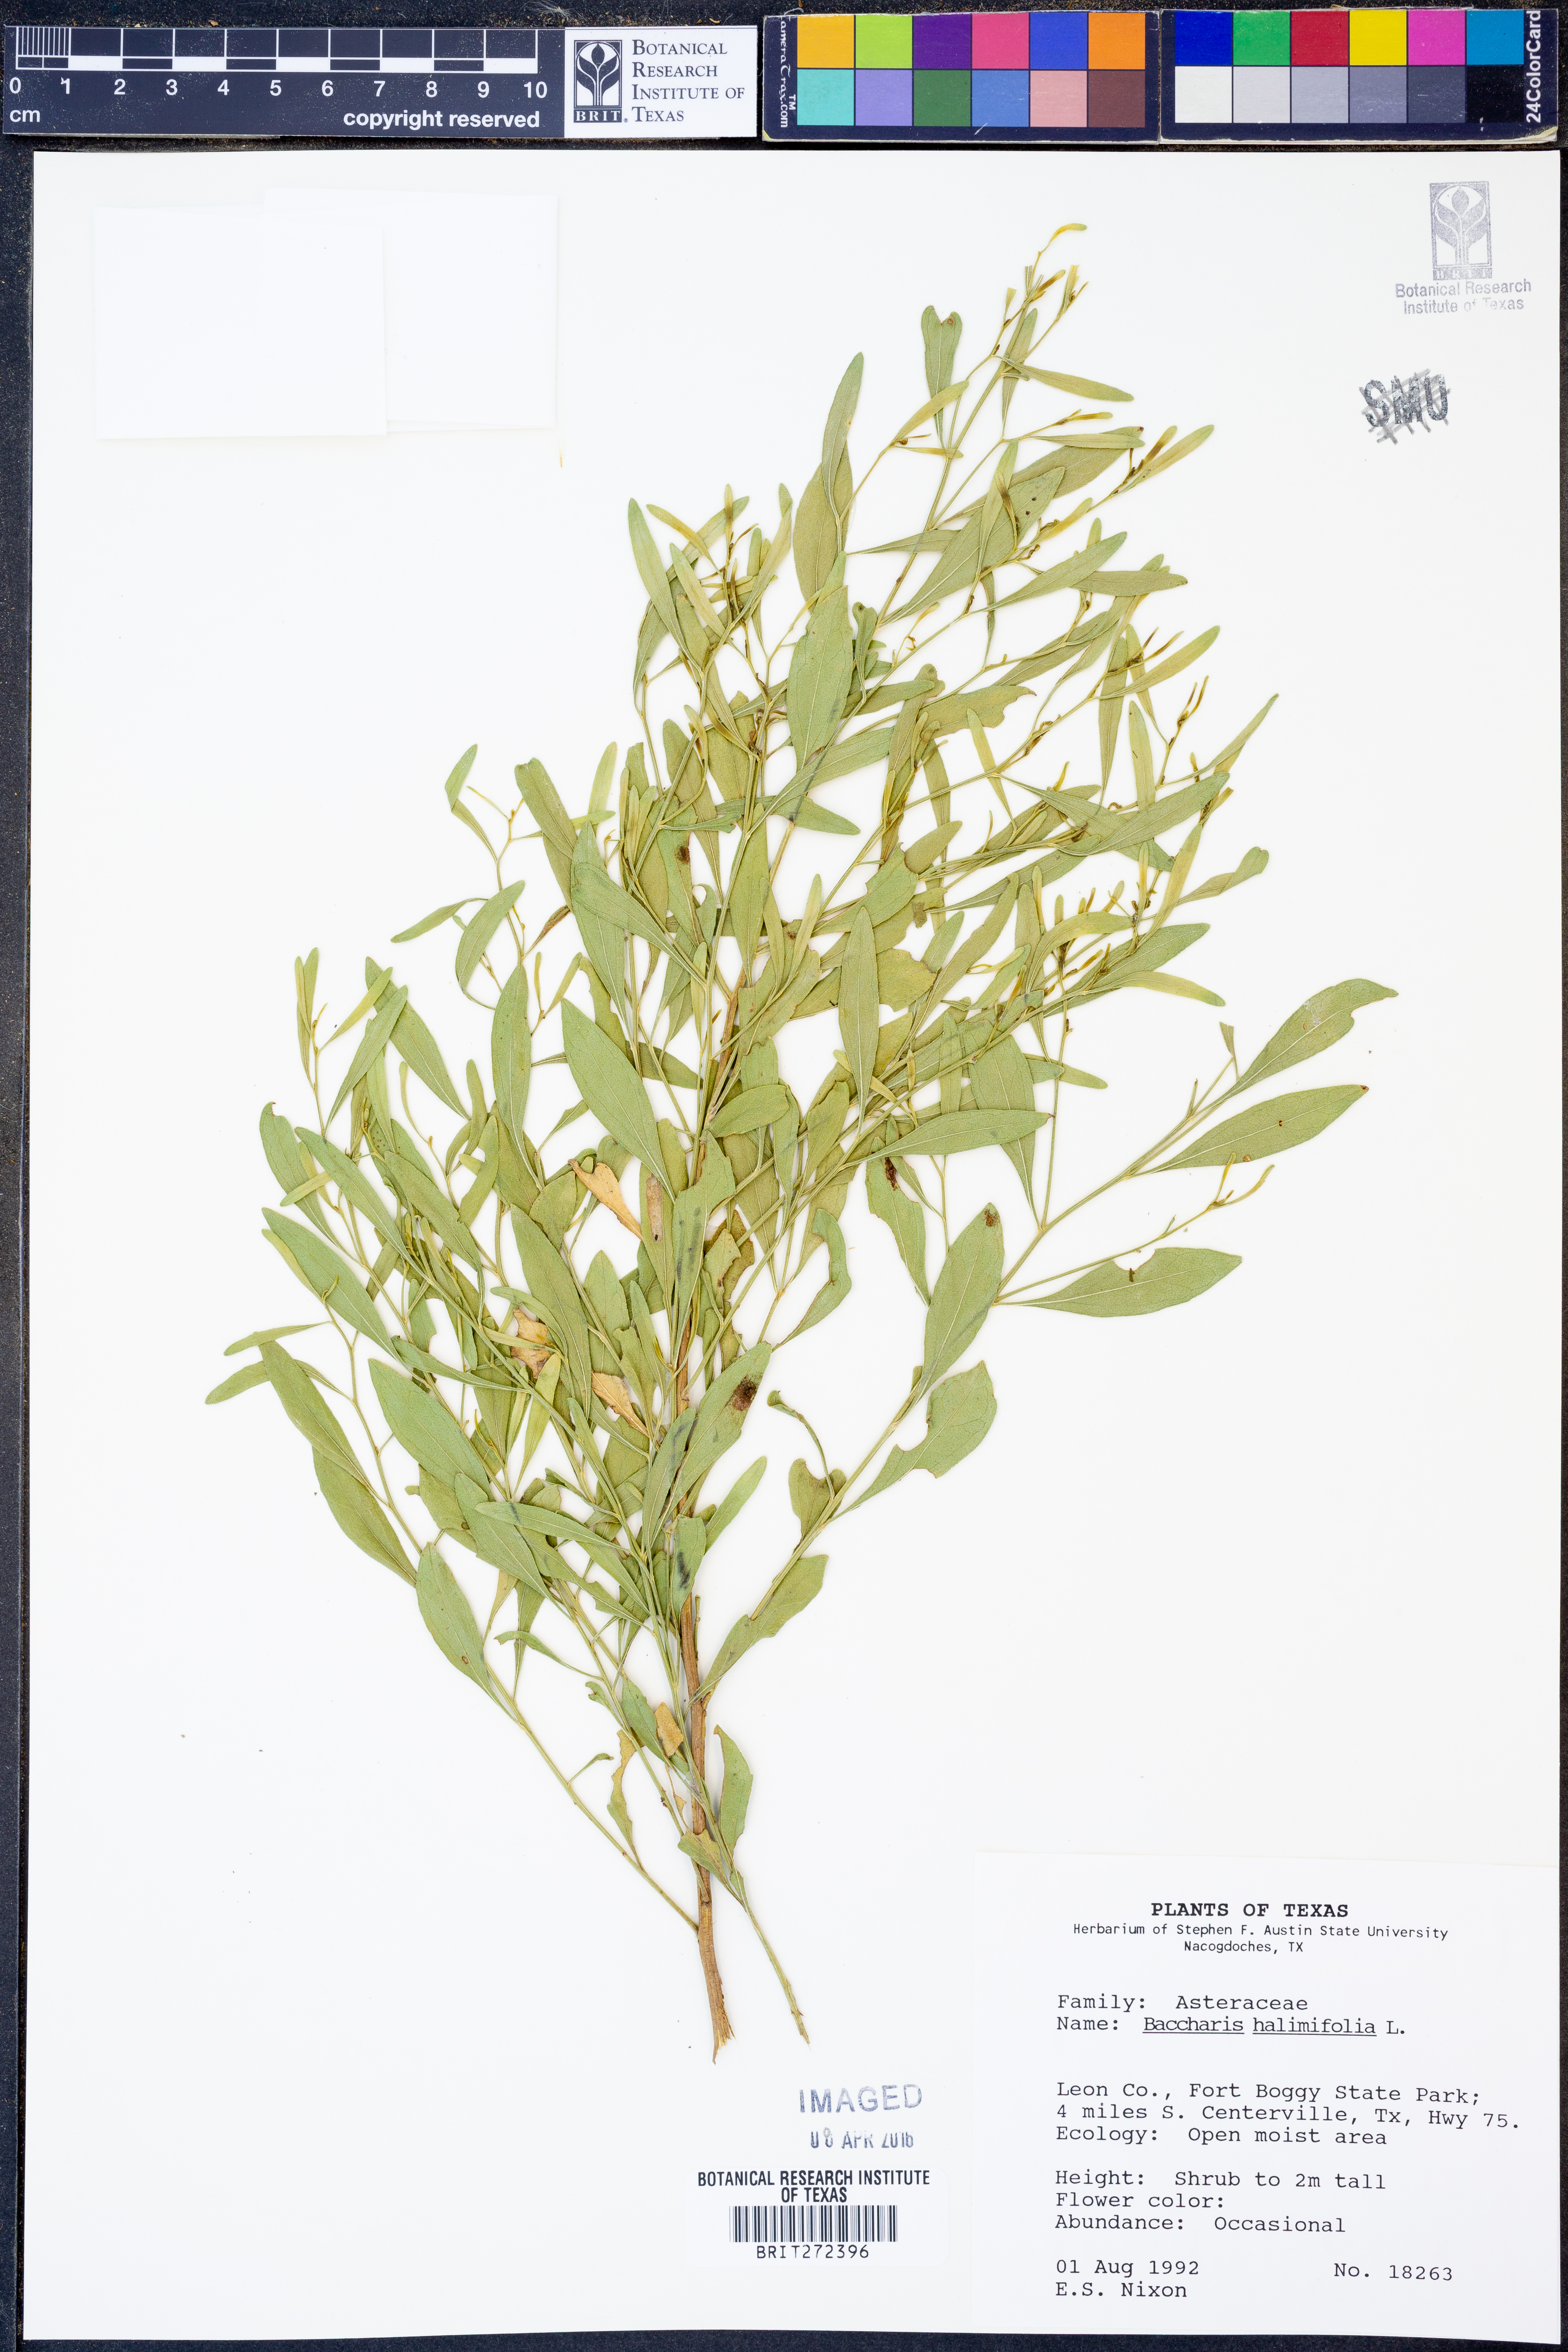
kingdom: Plantae
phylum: Tracheophyta
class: Magnoliopsida
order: Asterales
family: Asteraceae
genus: Nidorella
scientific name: Nidorella ivifolia
